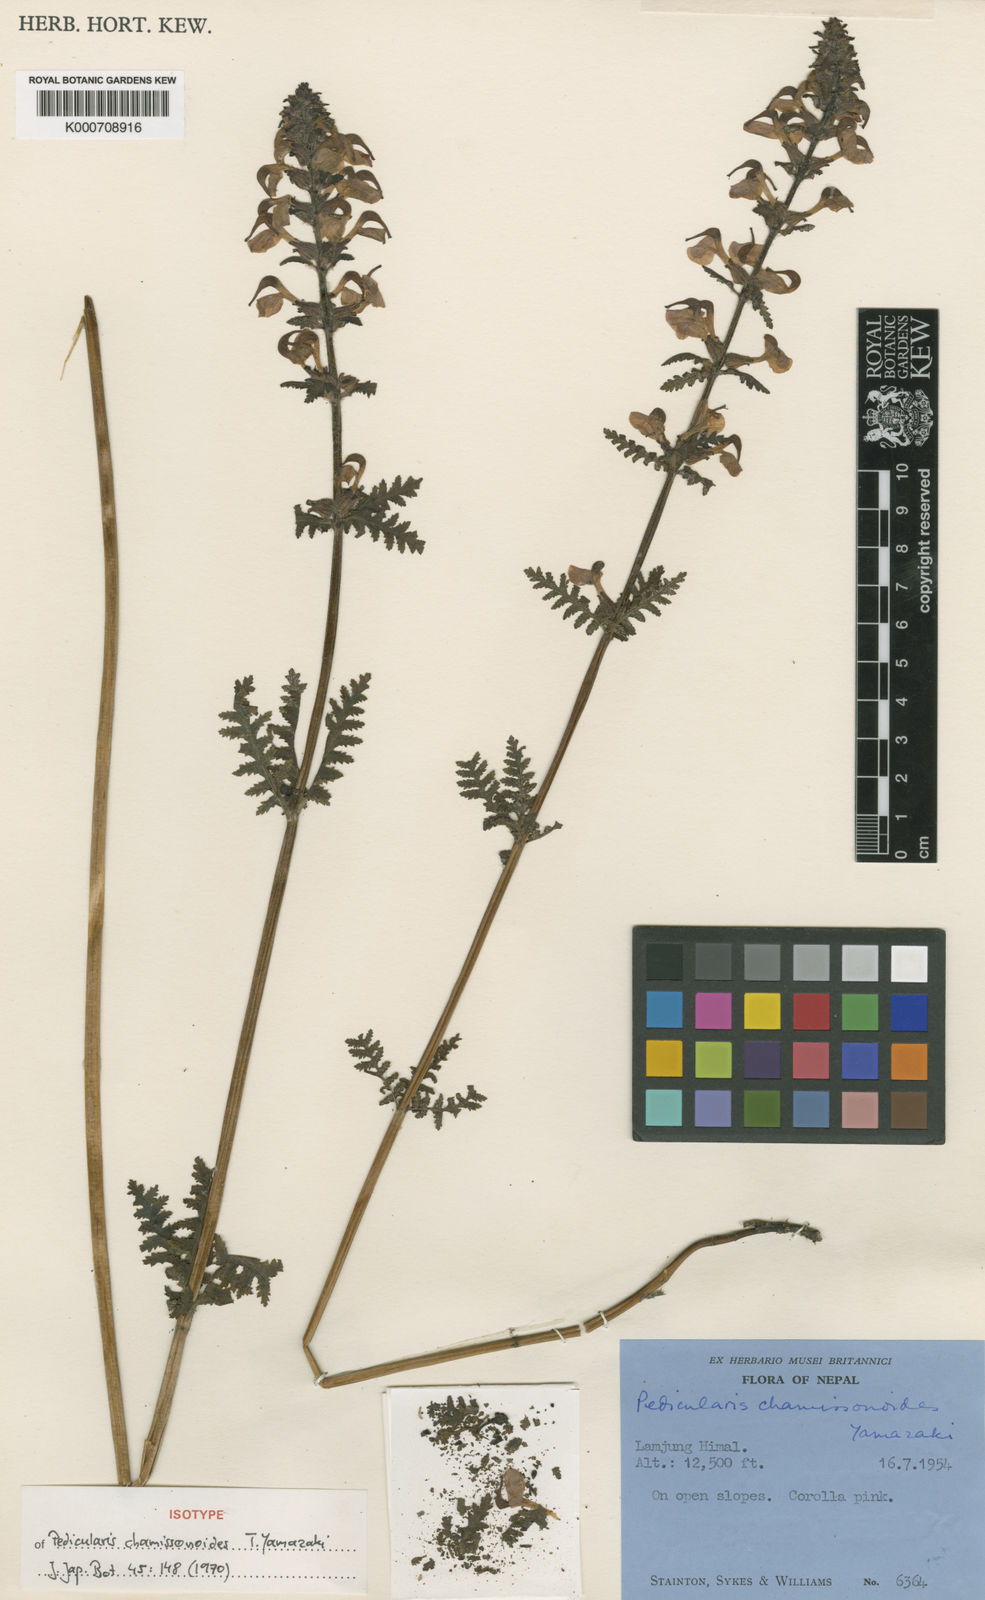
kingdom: Plantae
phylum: Tracheophyta
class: Magnoliopsida
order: Lamiales
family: Orobanchaceae
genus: Pedicularis
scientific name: Pedicularis chamissonoides
